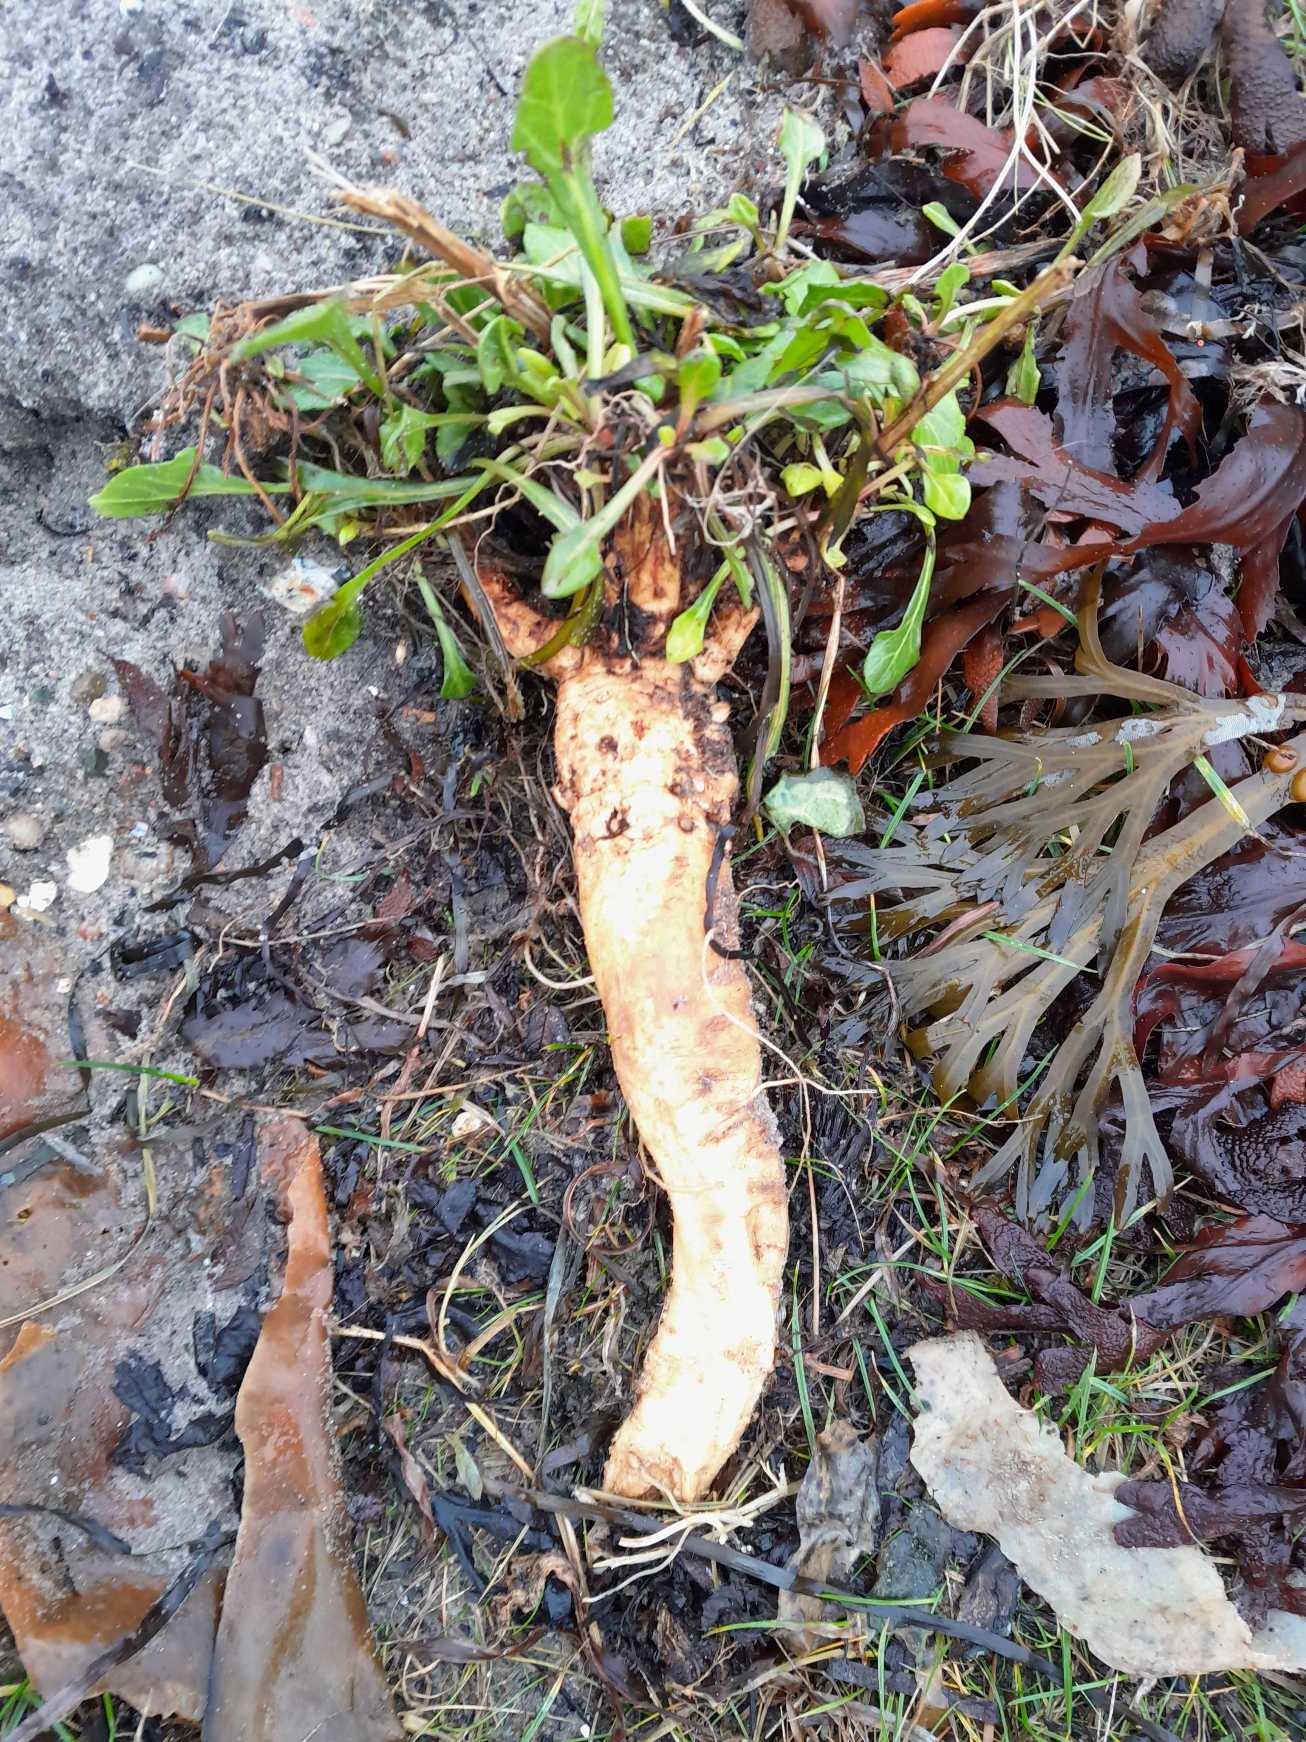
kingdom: Plantae
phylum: Tracheophyta
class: Magnoliopsida
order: Caryophyllales
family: Amaranthaceae
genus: Beta
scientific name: Beta maritima
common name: Strand-bede
